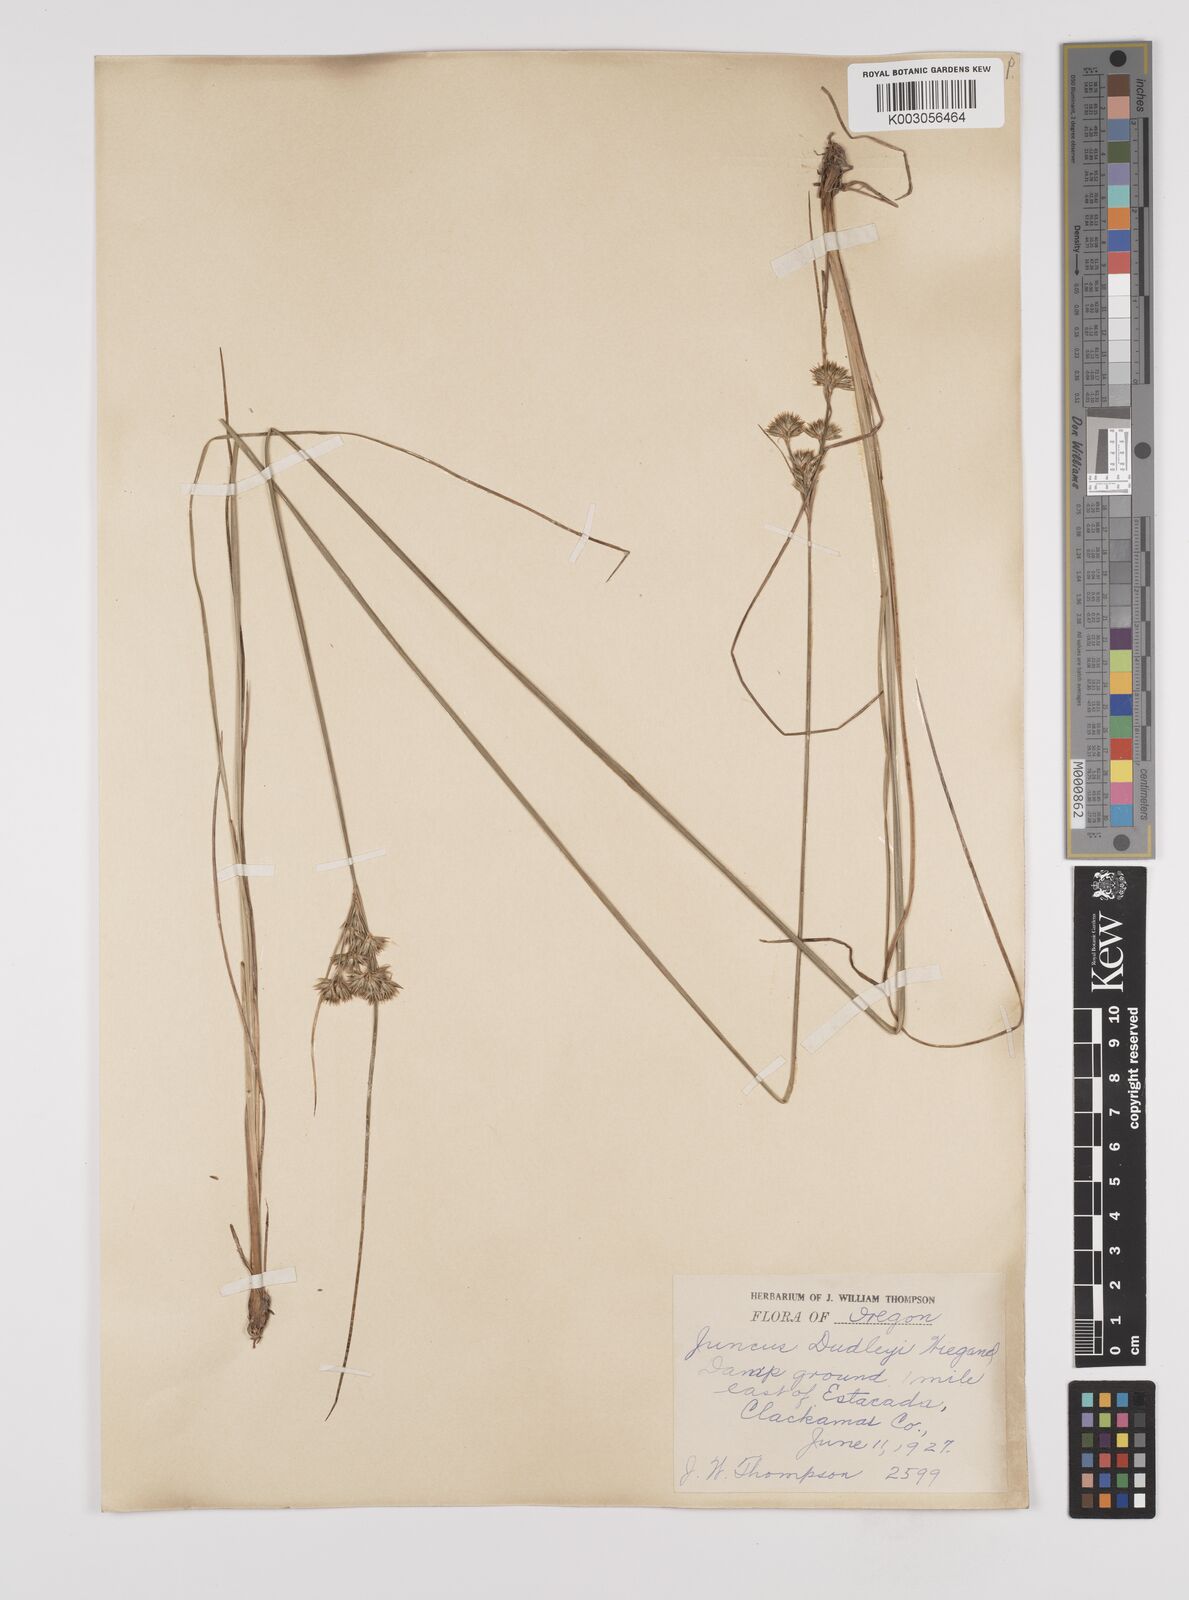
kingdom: Plantae
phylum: Tracheophyta
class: Liliopsida
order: Poales
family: Juncaceae
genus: Juncus
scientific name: Juncus dudleyi
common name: Dudley's rush
